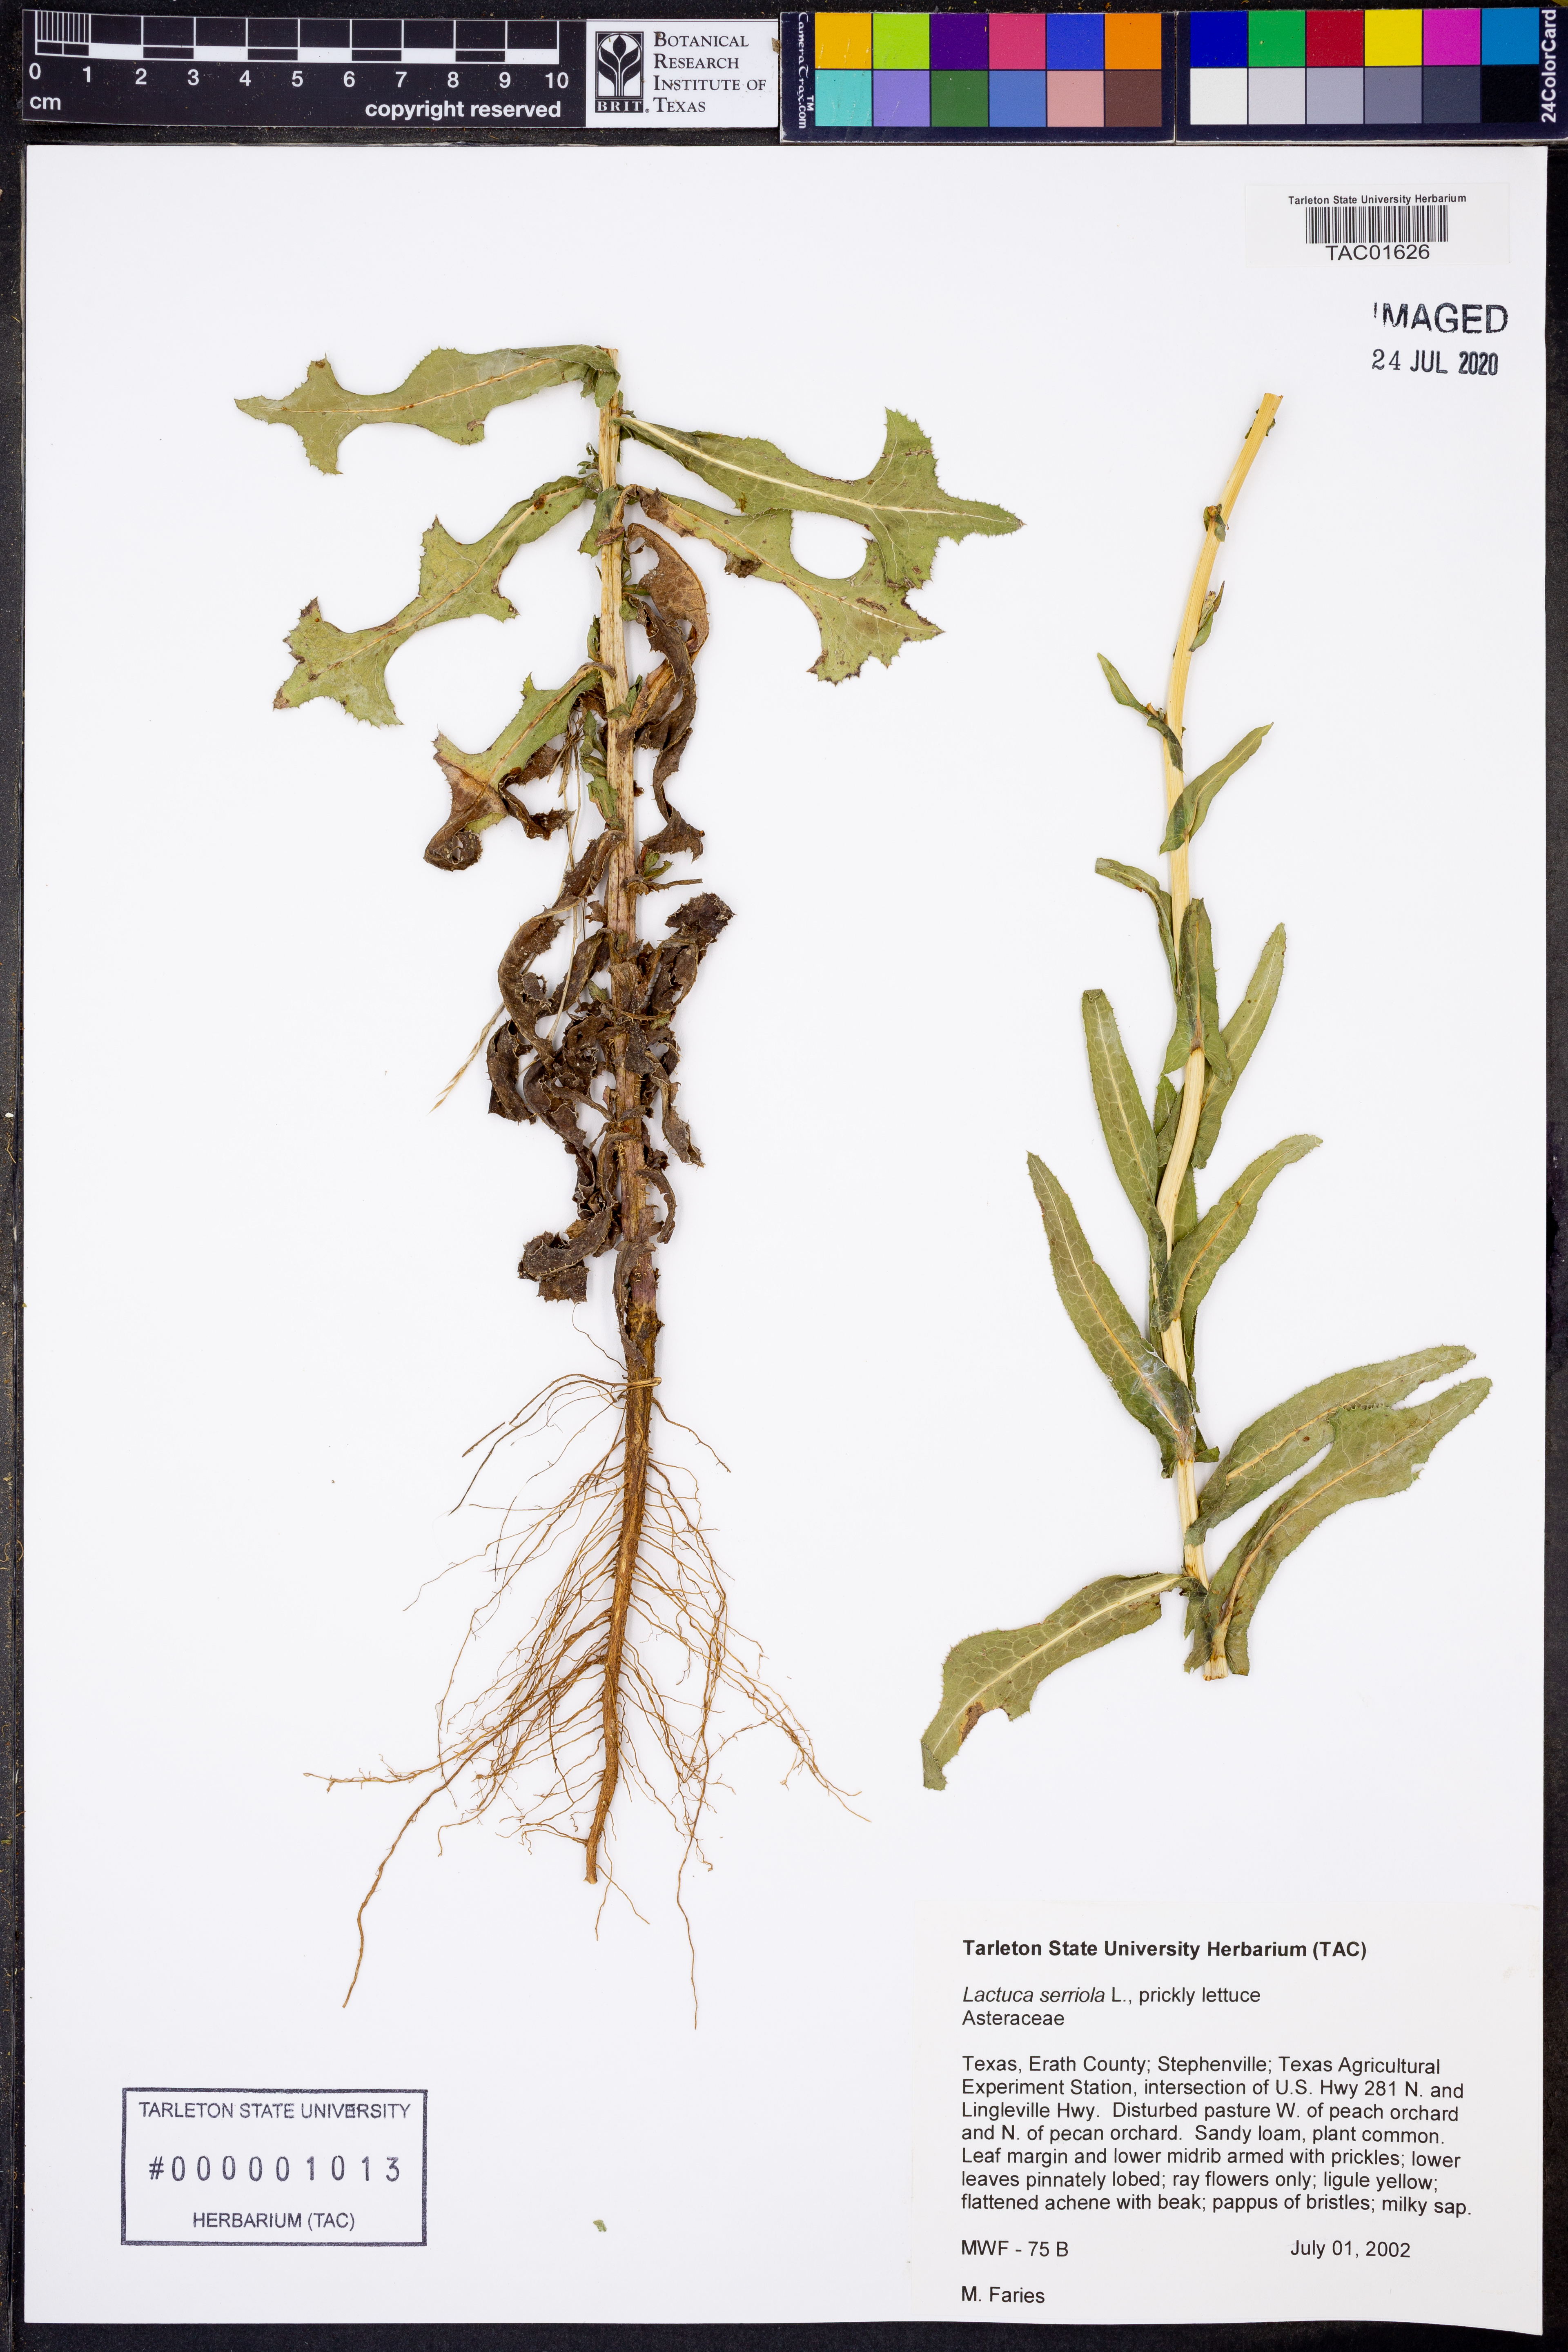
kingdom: Plantae
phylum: Tracheophyta
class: Magnoliopsida
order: Asterales
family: Asteraceae
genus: Lactuca
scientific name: Lactuca serriola
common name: Prickly lettuce
